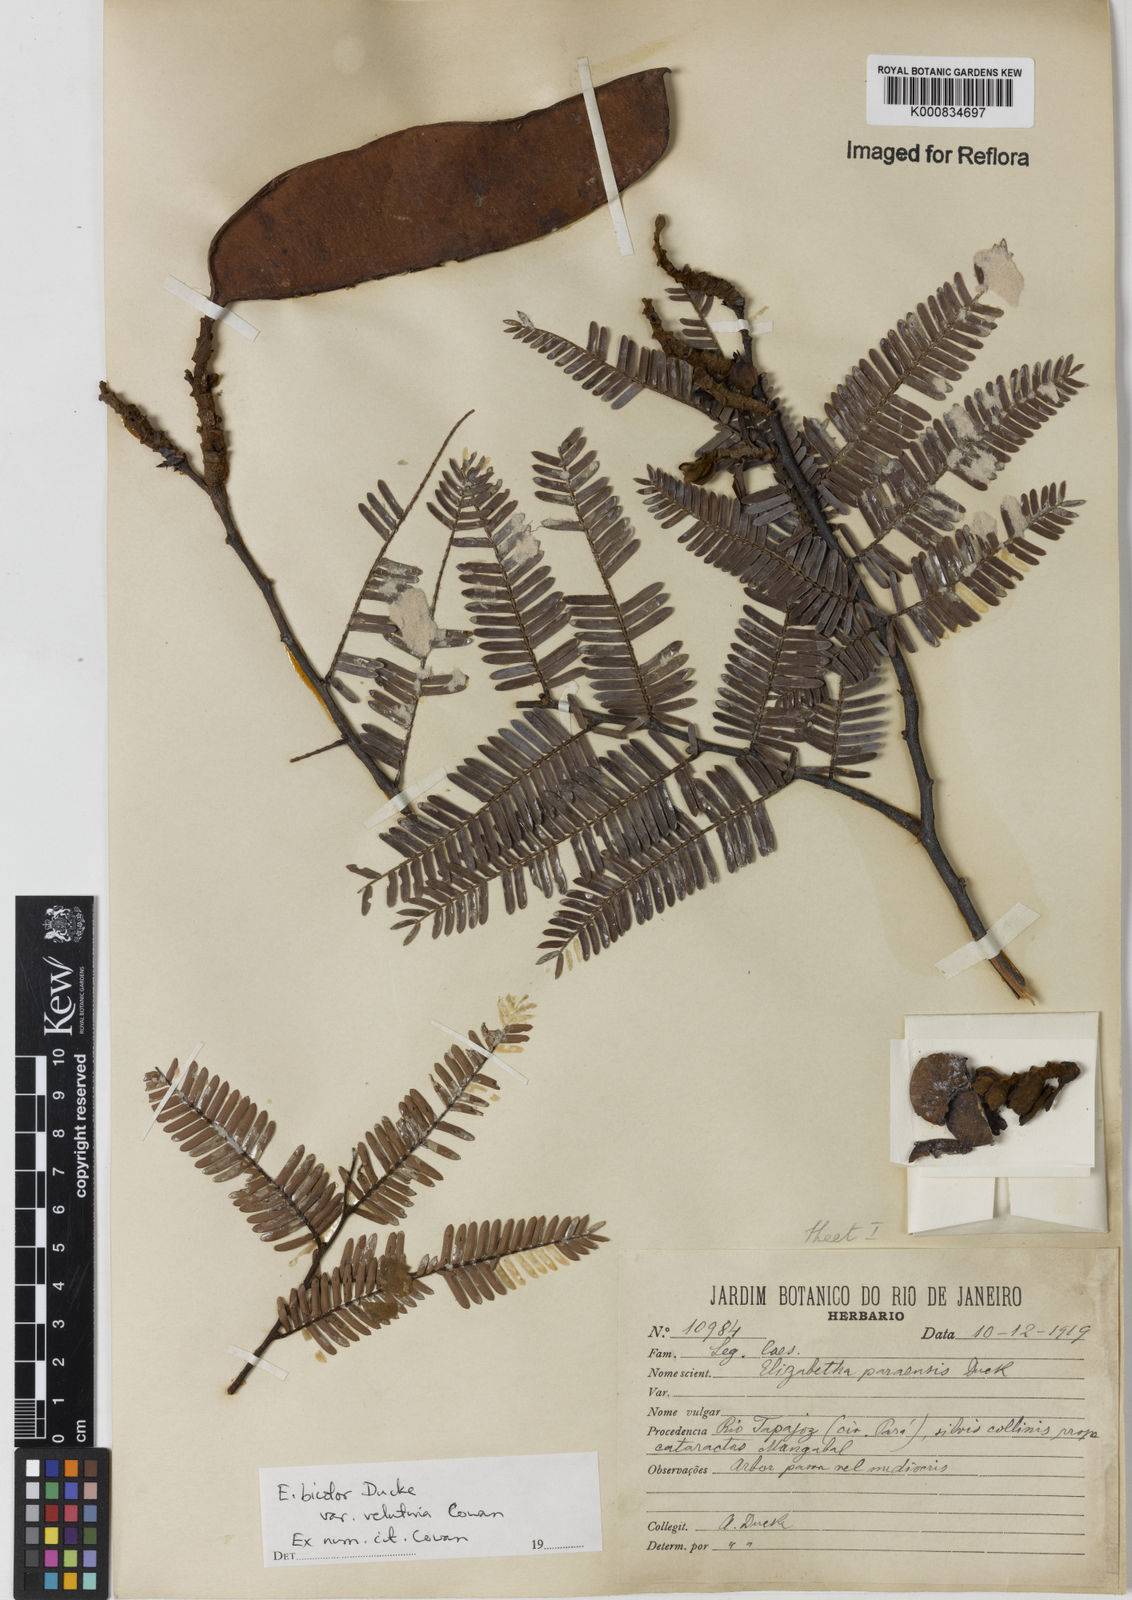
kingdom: Plantae
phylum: Tracheophyta
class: Magnoliopsida
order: Fabales
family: Fabaceae
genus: Paloue
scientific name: Paloue bicolor
